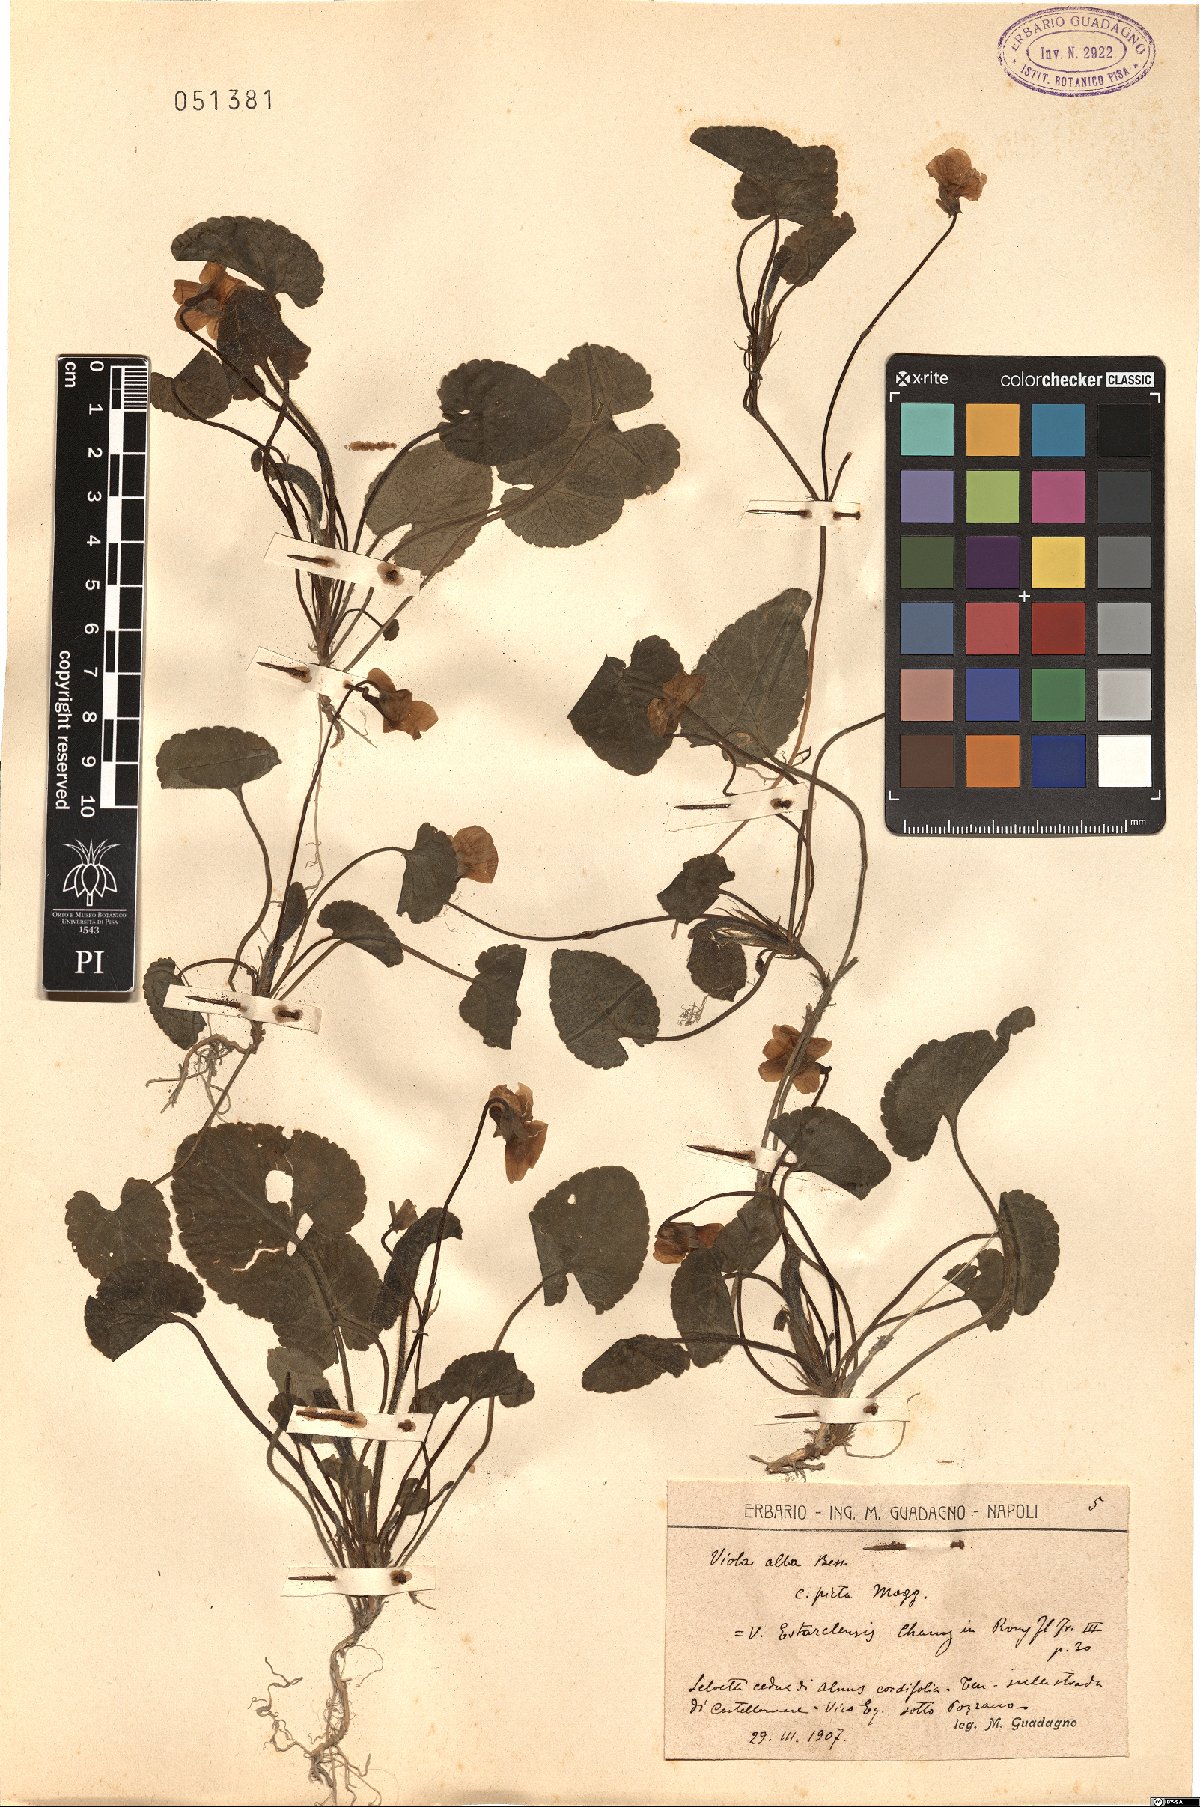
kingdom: Plantae
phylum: Tracheophyta
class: Magnoliopsida
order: Malpighiales
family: Violaceae
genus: Viola
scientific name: Viola alba
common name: White violet
